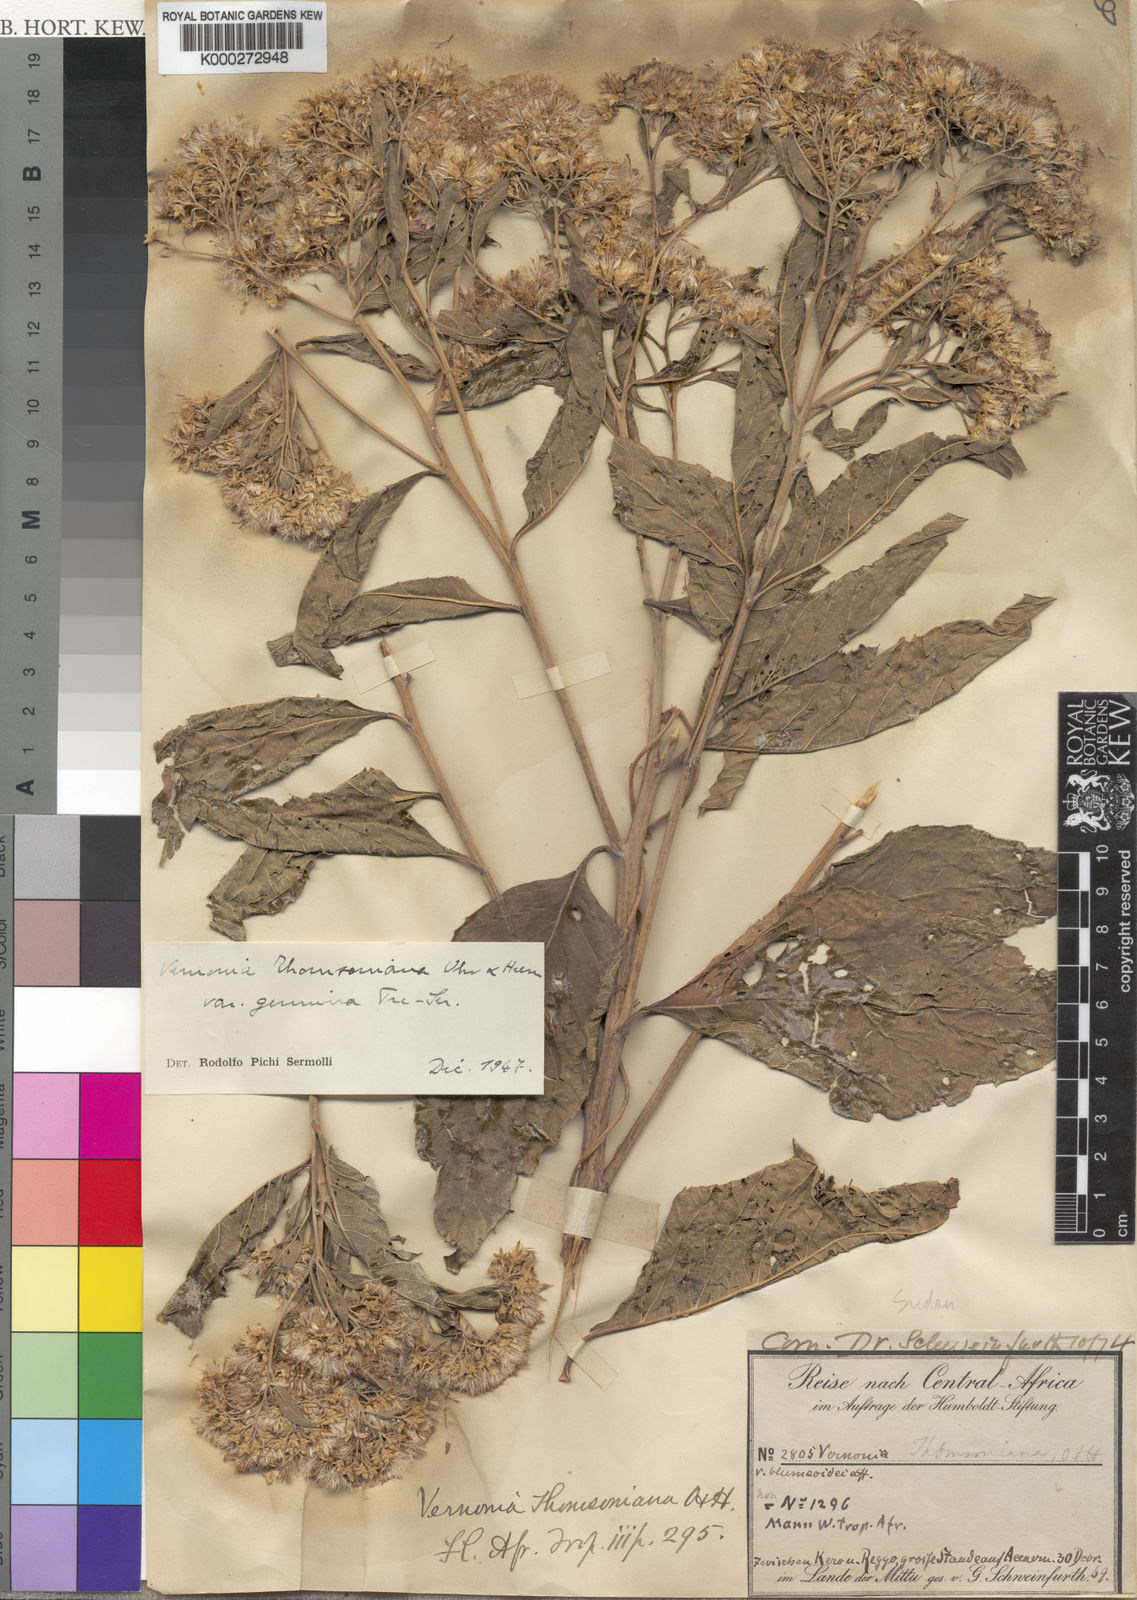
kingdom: Plantae
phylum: Tracheophyta
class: Magnoliopsida
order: Asterales
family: Asteraceae
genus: Gymnanthemum
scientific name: Gymnanthemum thomsonianum
